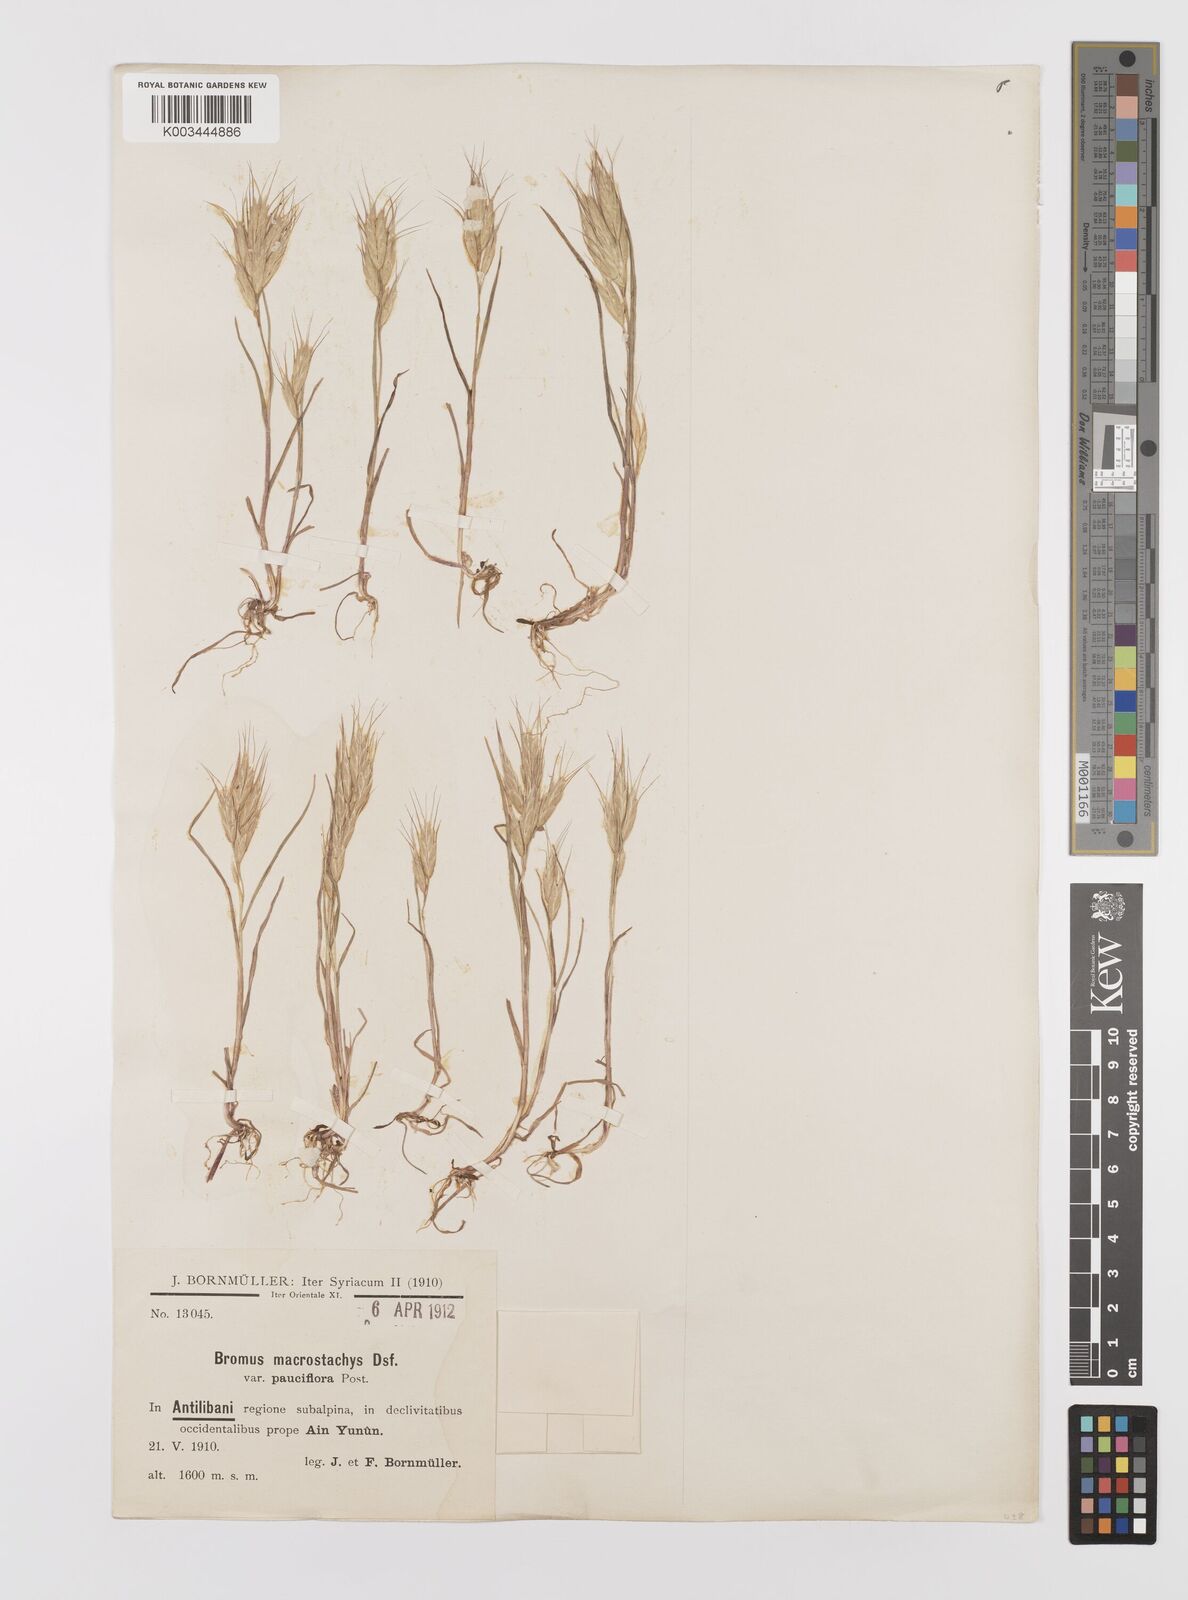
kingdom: Plantae
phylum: Tracheophyta
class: Liliopsida
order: Poales
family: Poaceae
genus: Bromus
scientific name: Bromus lanceolatus
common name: Mediterranean brome
